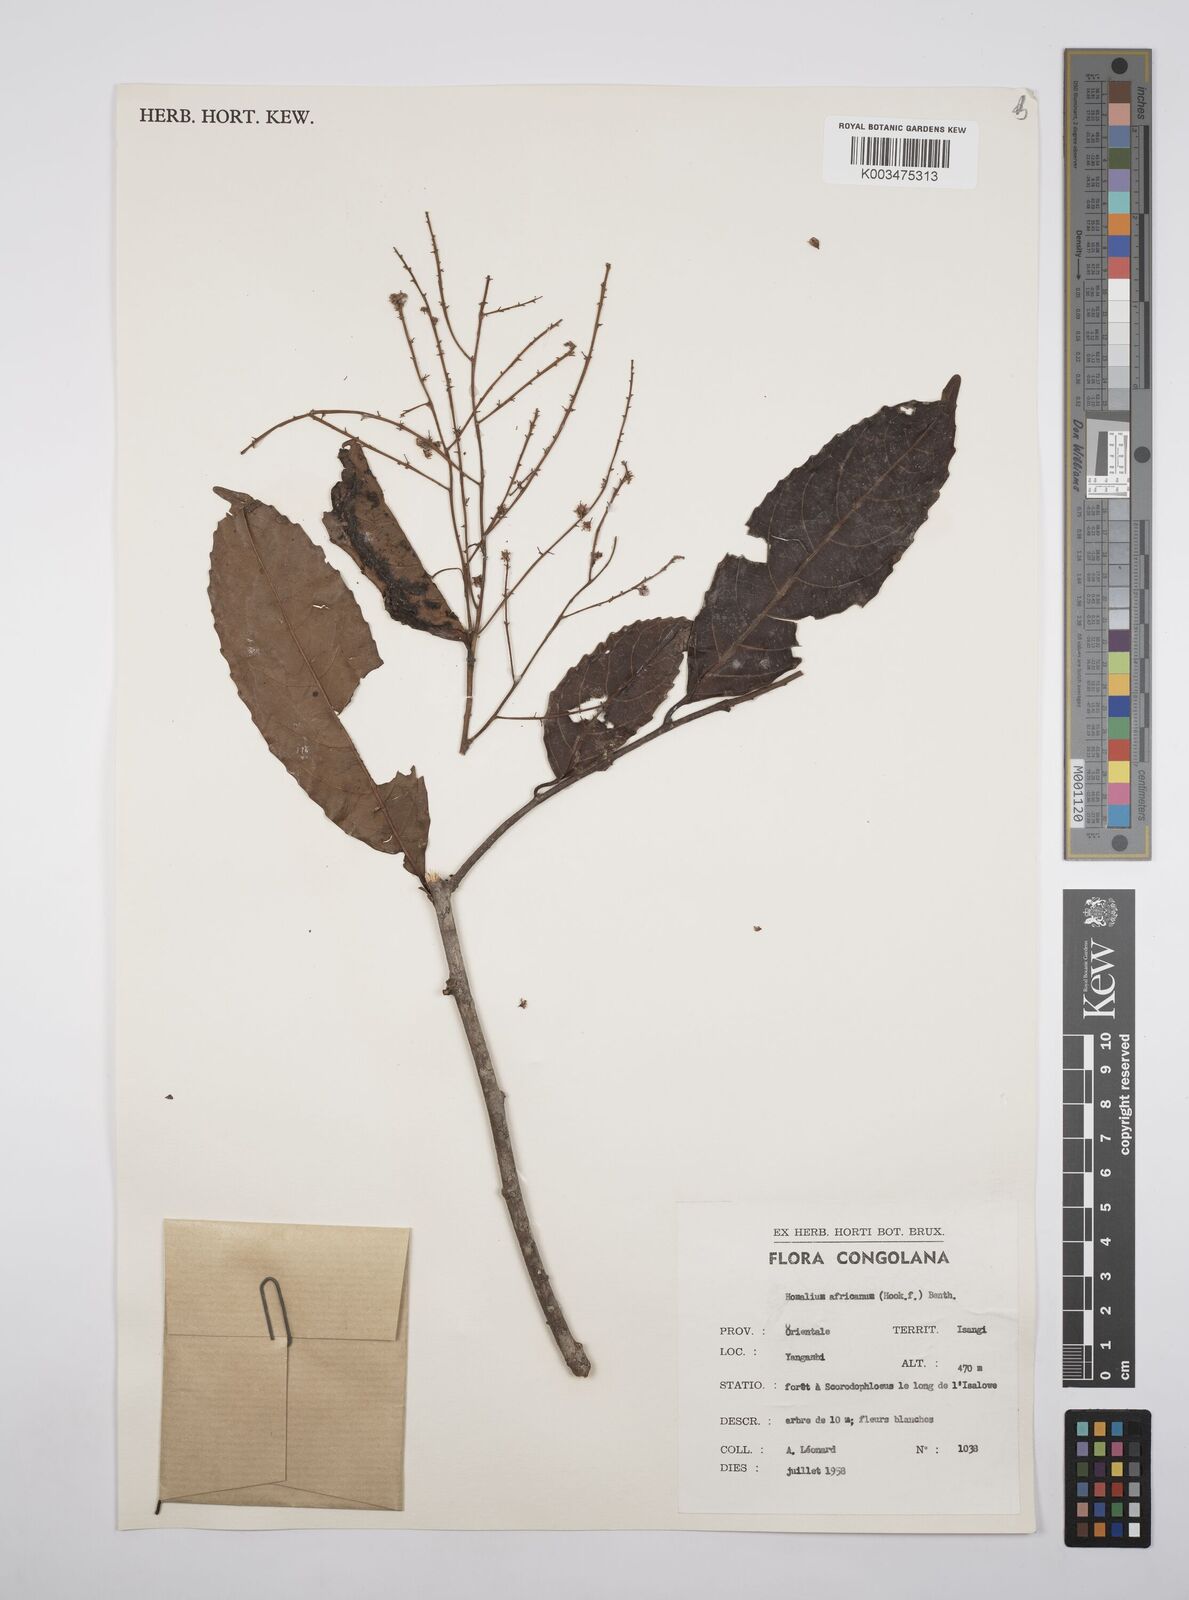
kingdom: Plantae
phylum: Tracheophyta
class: Magnoliopsida
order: Malpighiales
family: Salicaceae
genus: Homalium
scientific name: Homalium africanum
